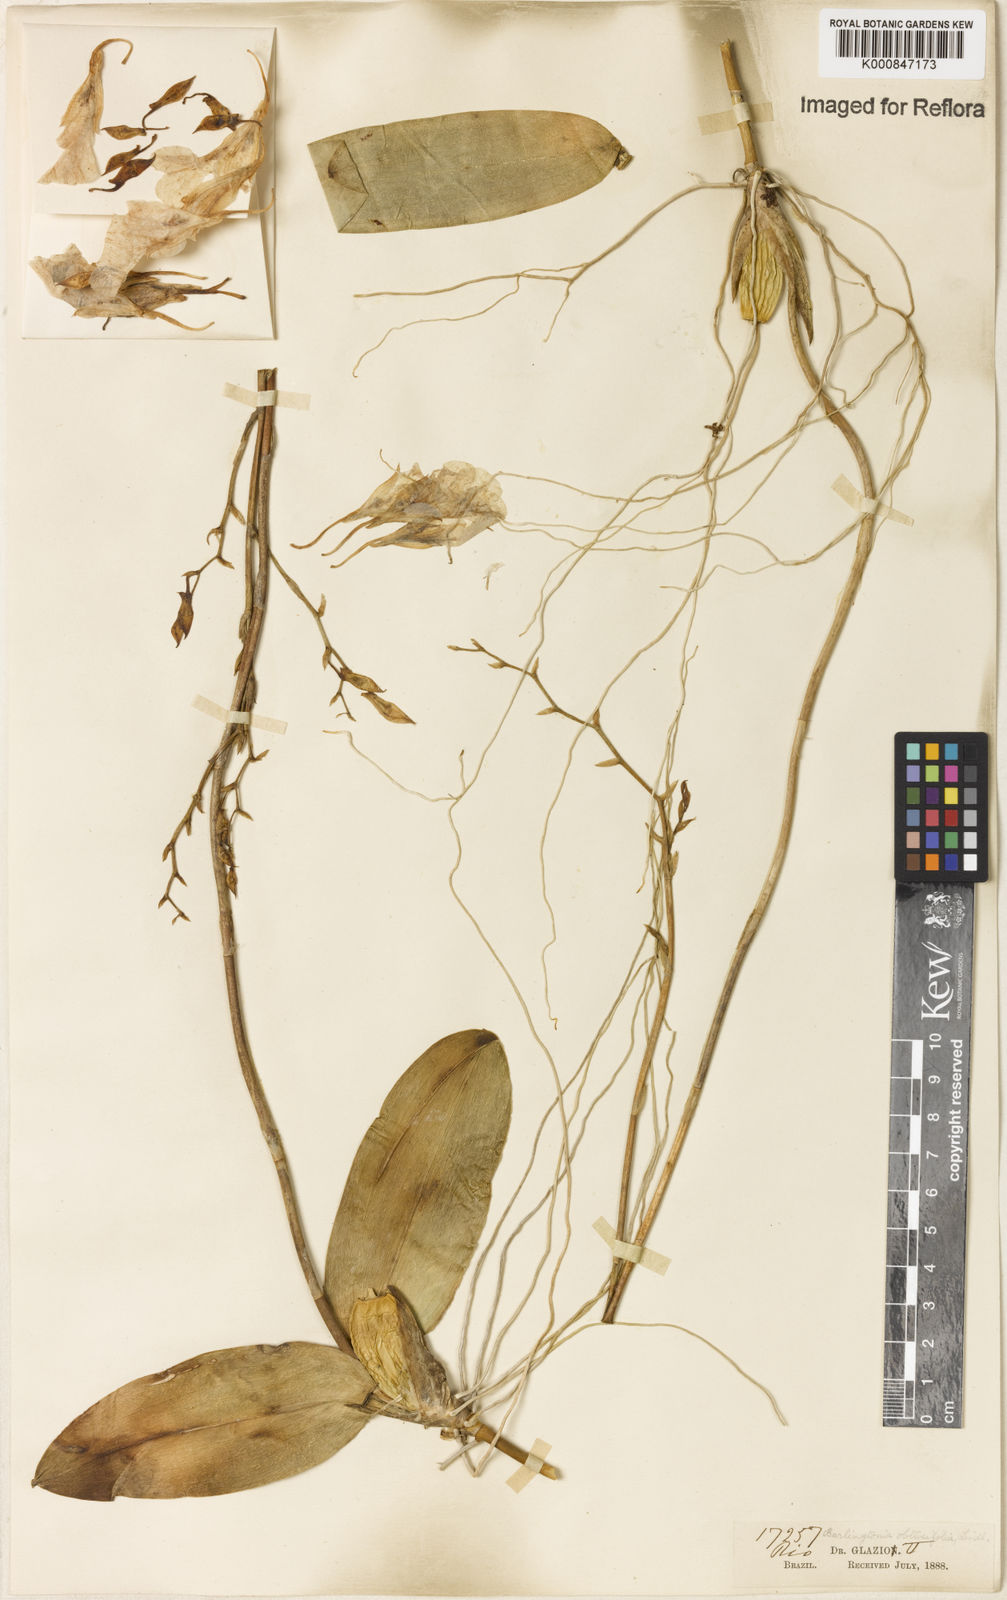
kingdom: Plantae
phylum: Tracheophyta
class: Liliopsida
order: Asparagales
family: Orchidaceae
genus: Rodriguezia
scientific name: Rodriguezia obtusifolia
